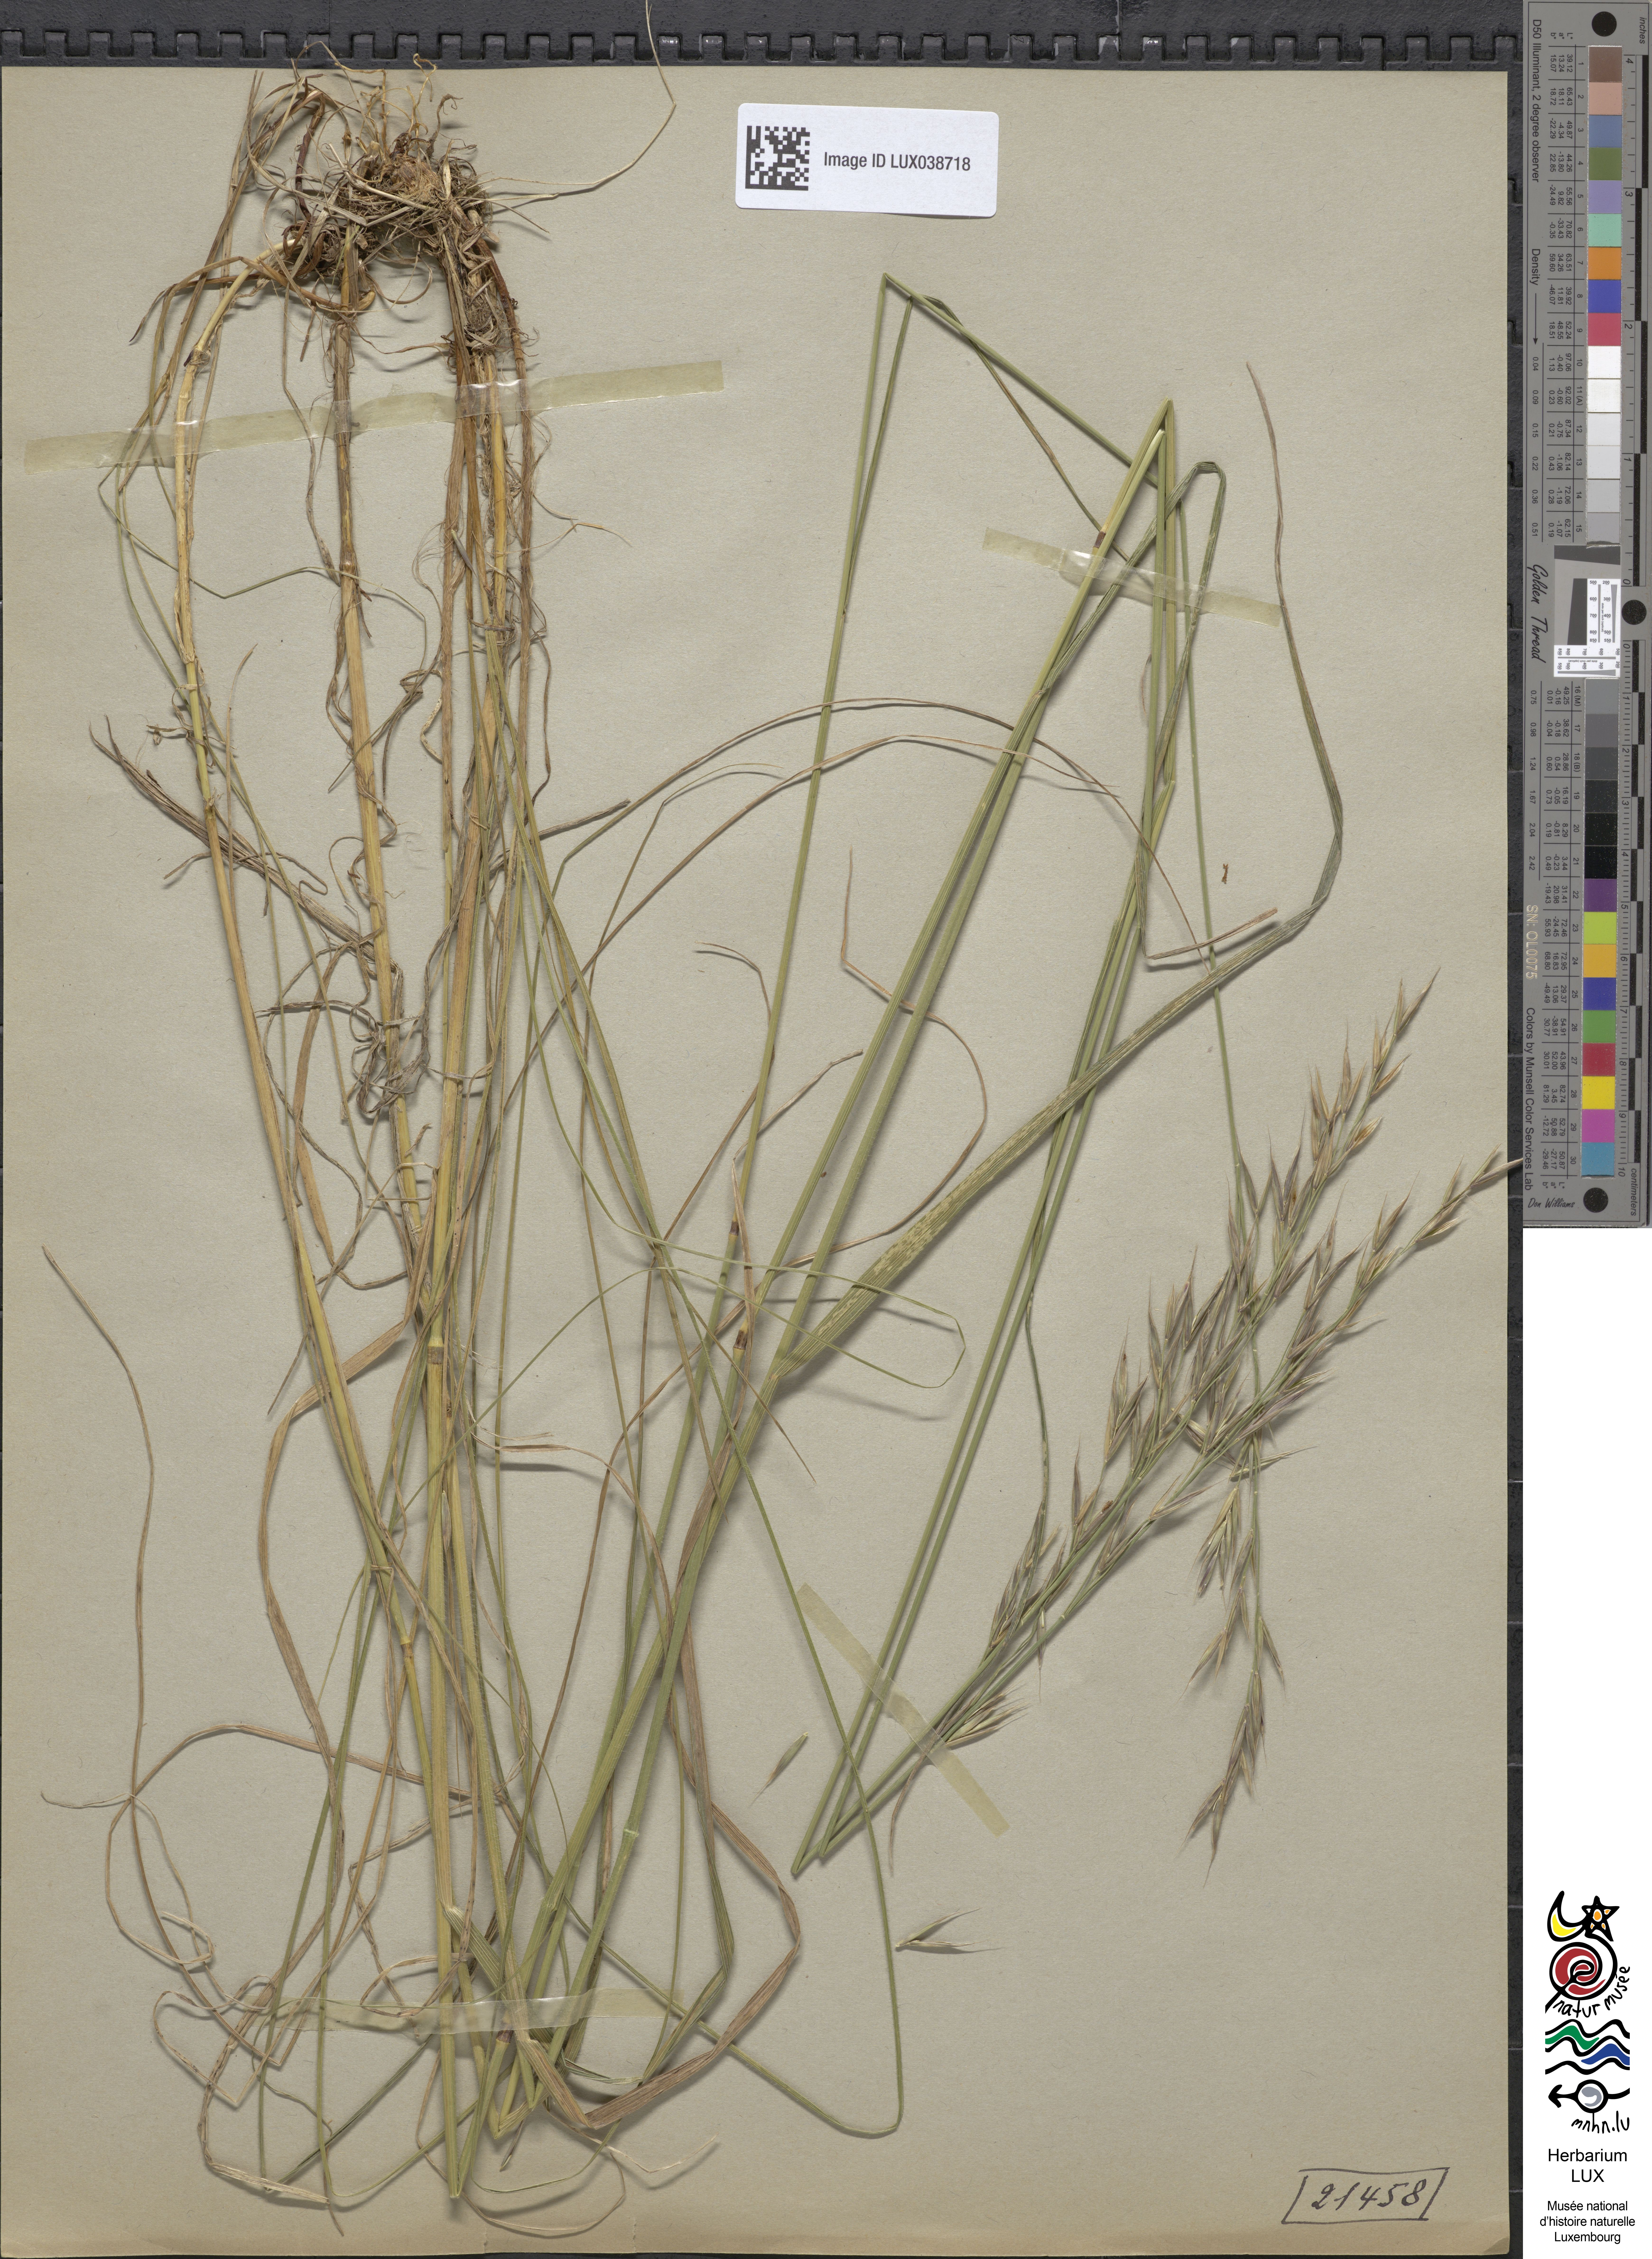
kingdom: Plantae
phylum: Tracheophyta
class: Liliopsida
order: Poales
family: Poaceae
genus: Bromus
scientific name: Bromus erectus
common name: Erect brome
